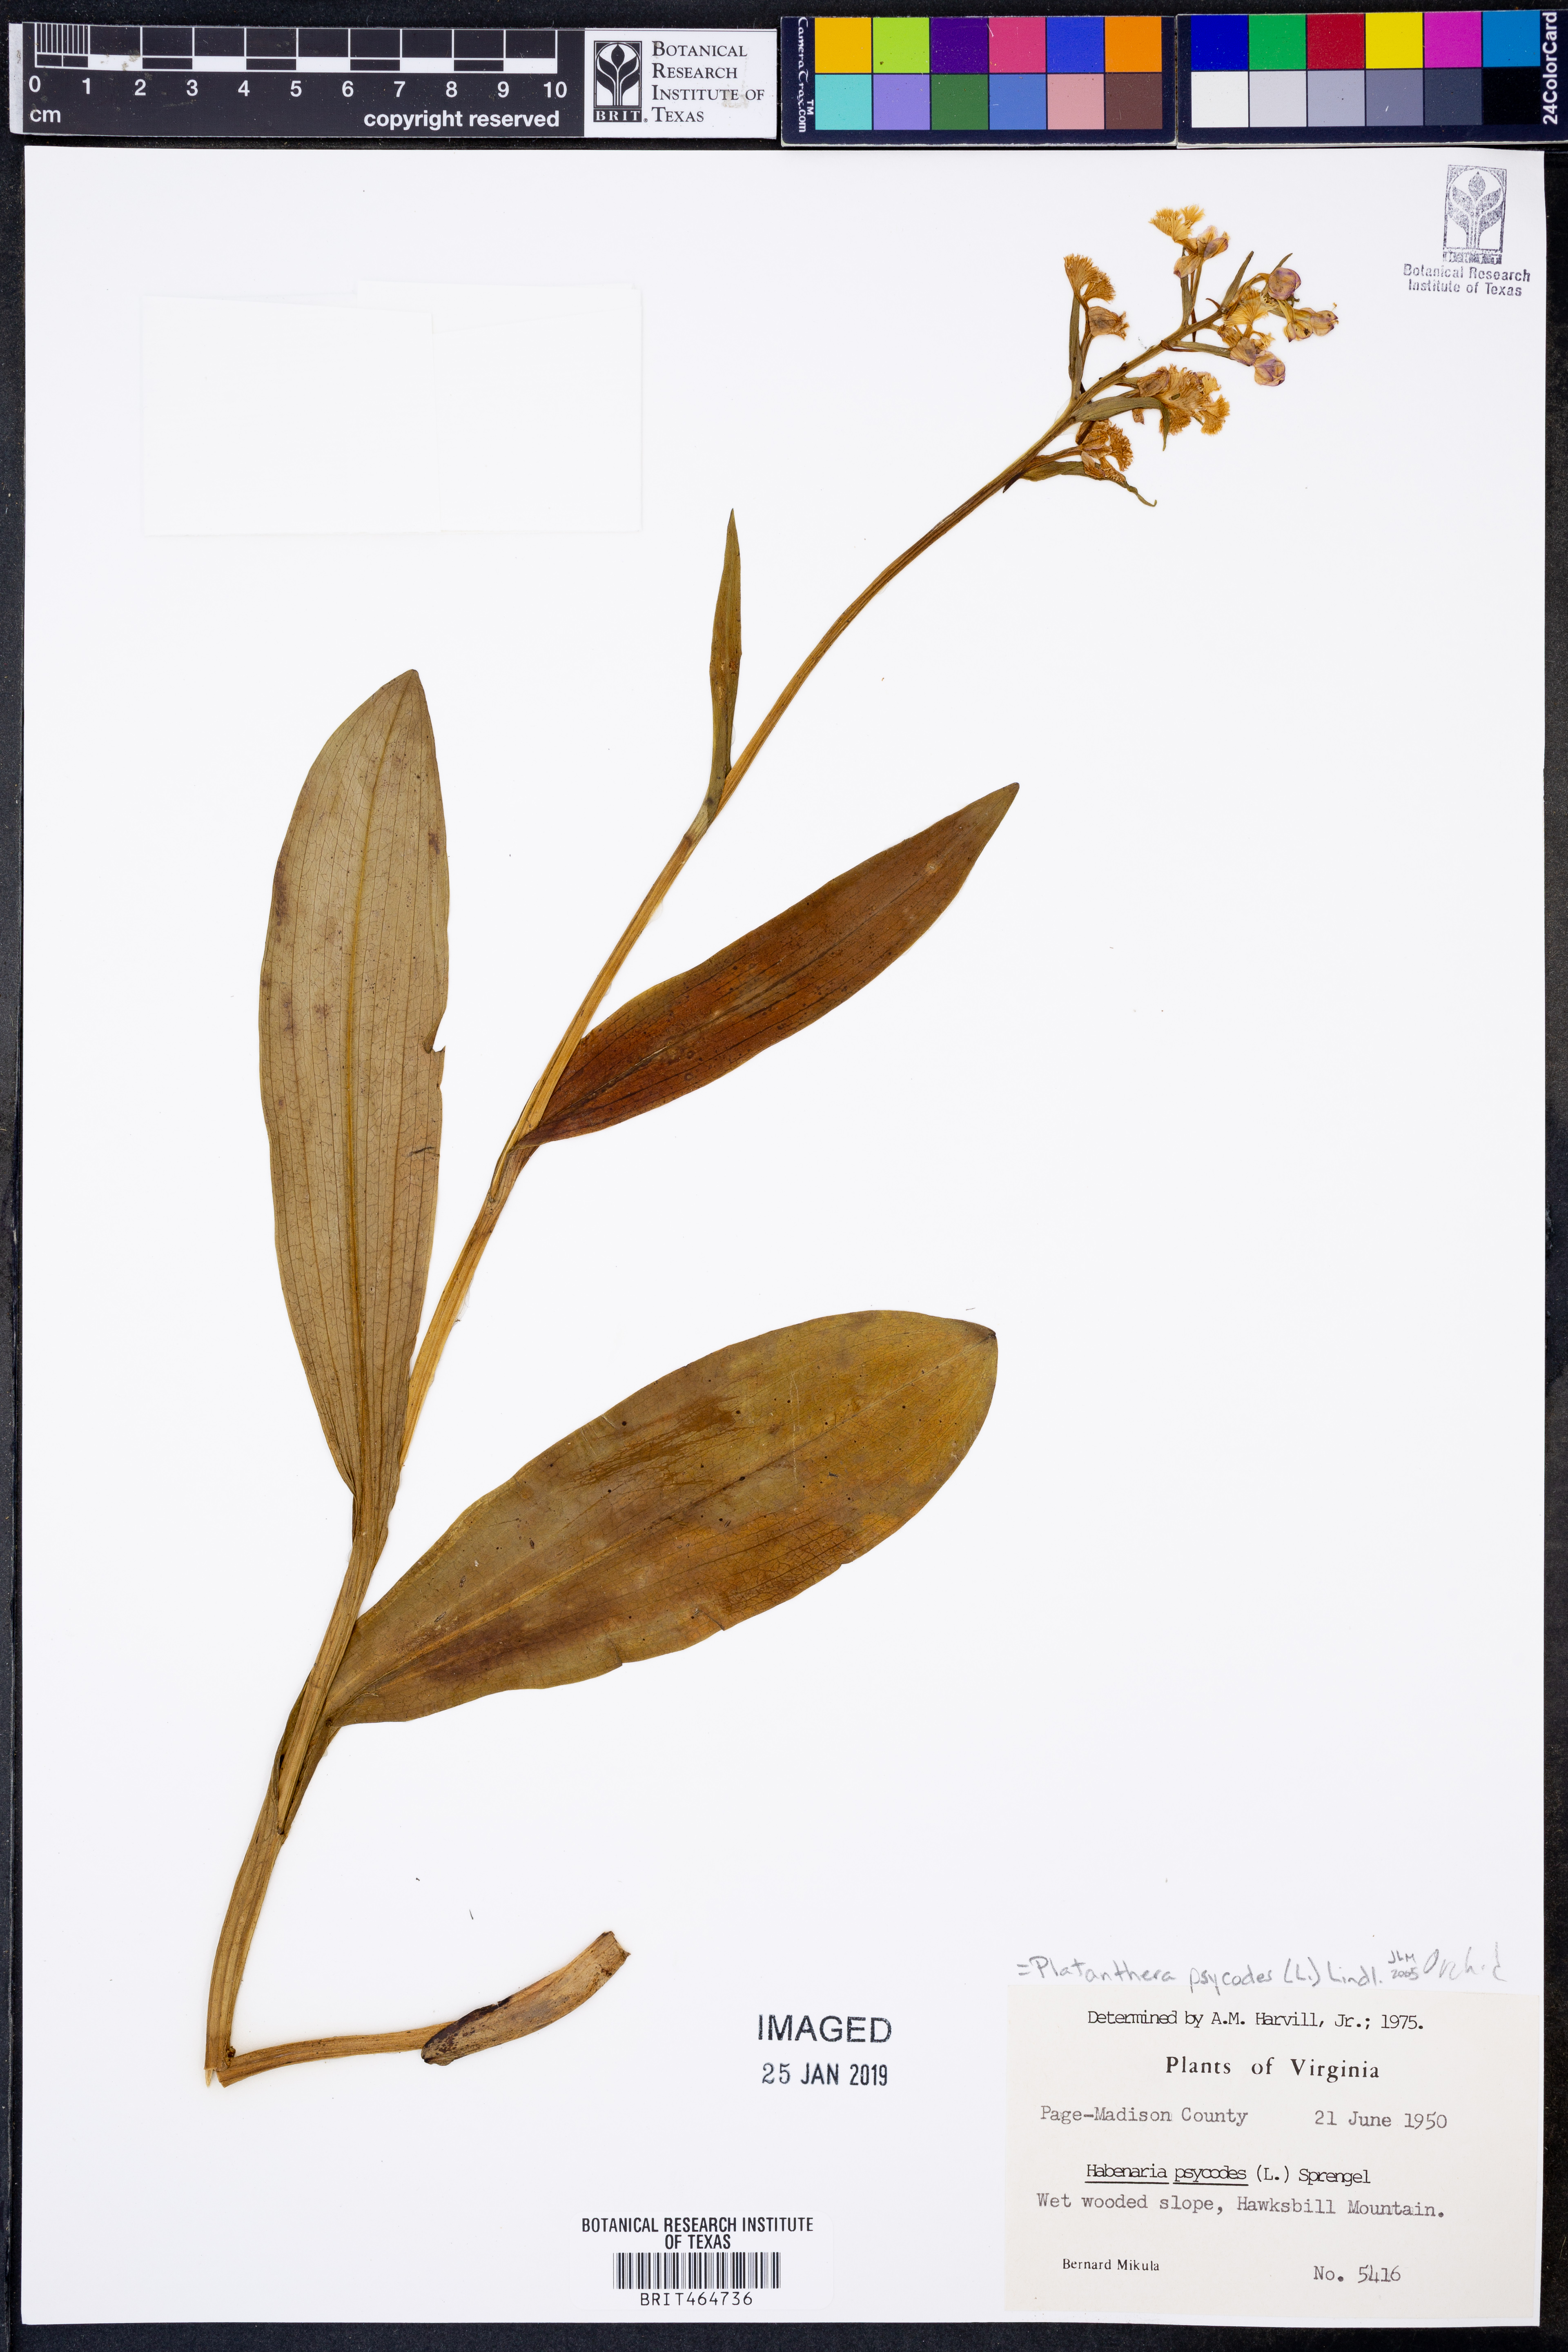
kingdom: Plantae
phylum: Tracheophyta
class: Liliopsida
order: Asparagales
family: Orchidaceae
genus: Platanthera
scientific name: Platanthera psycodes
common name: Lesser purple fringed orchid
